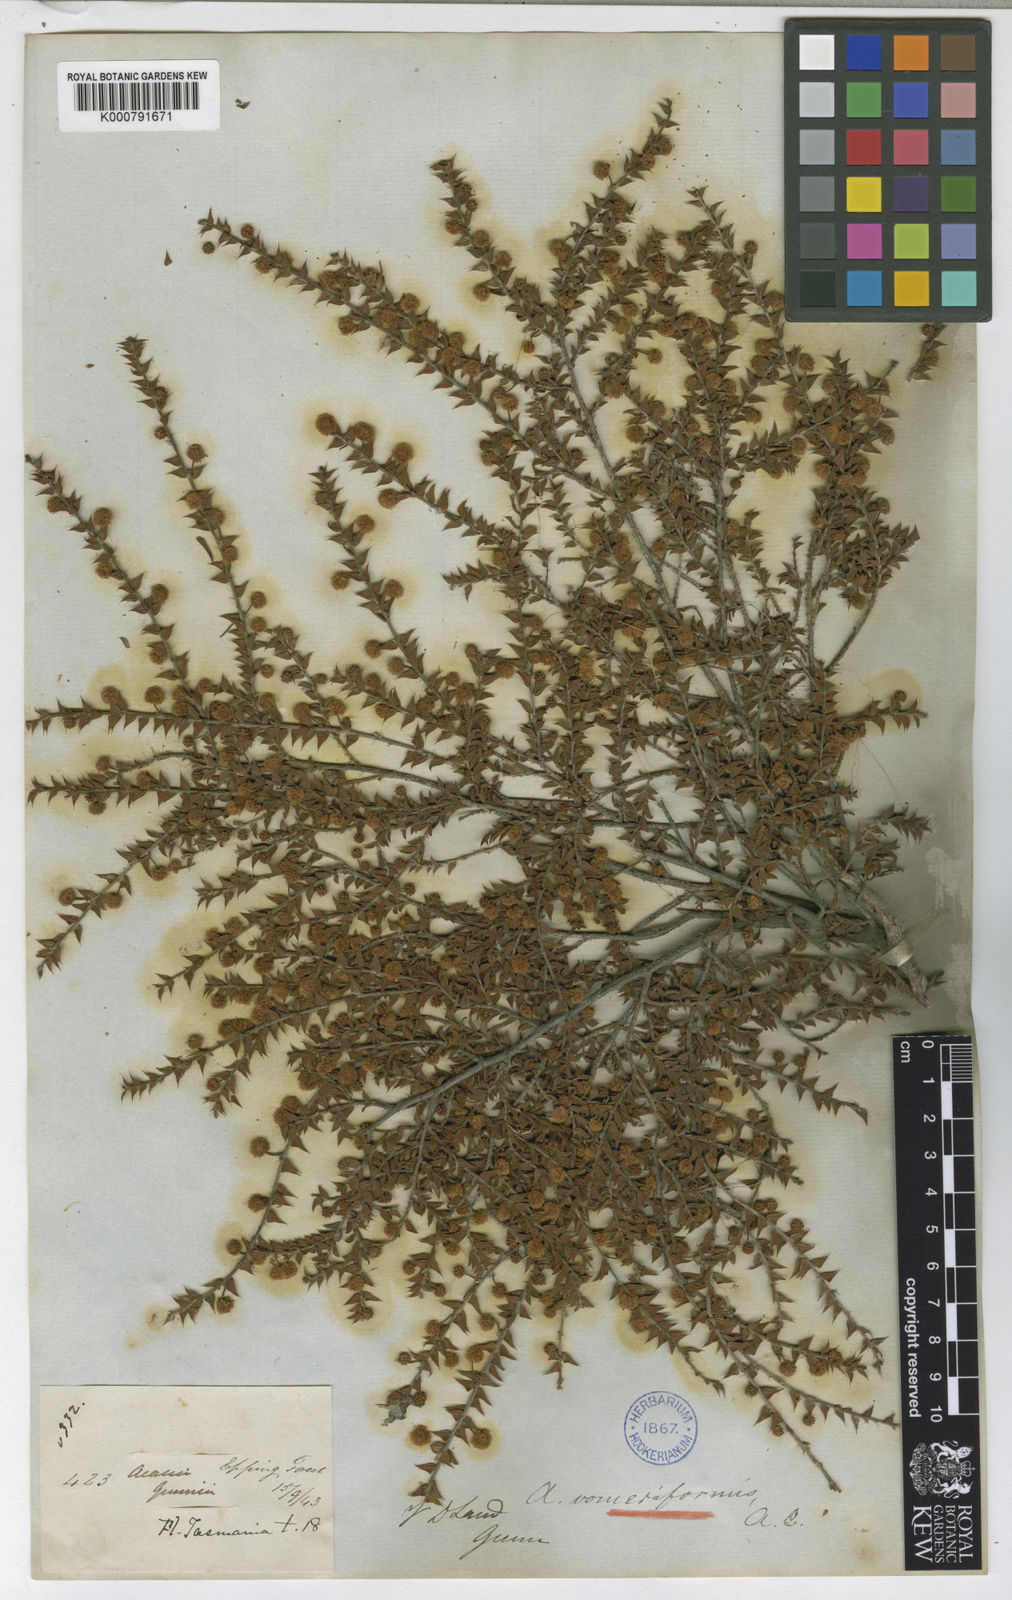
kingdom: Plantae
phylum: Tracheophyta
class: Magnoliopsida
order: Fabales
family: Fabaceae
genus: Acacia
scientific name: Acacia gunnii
